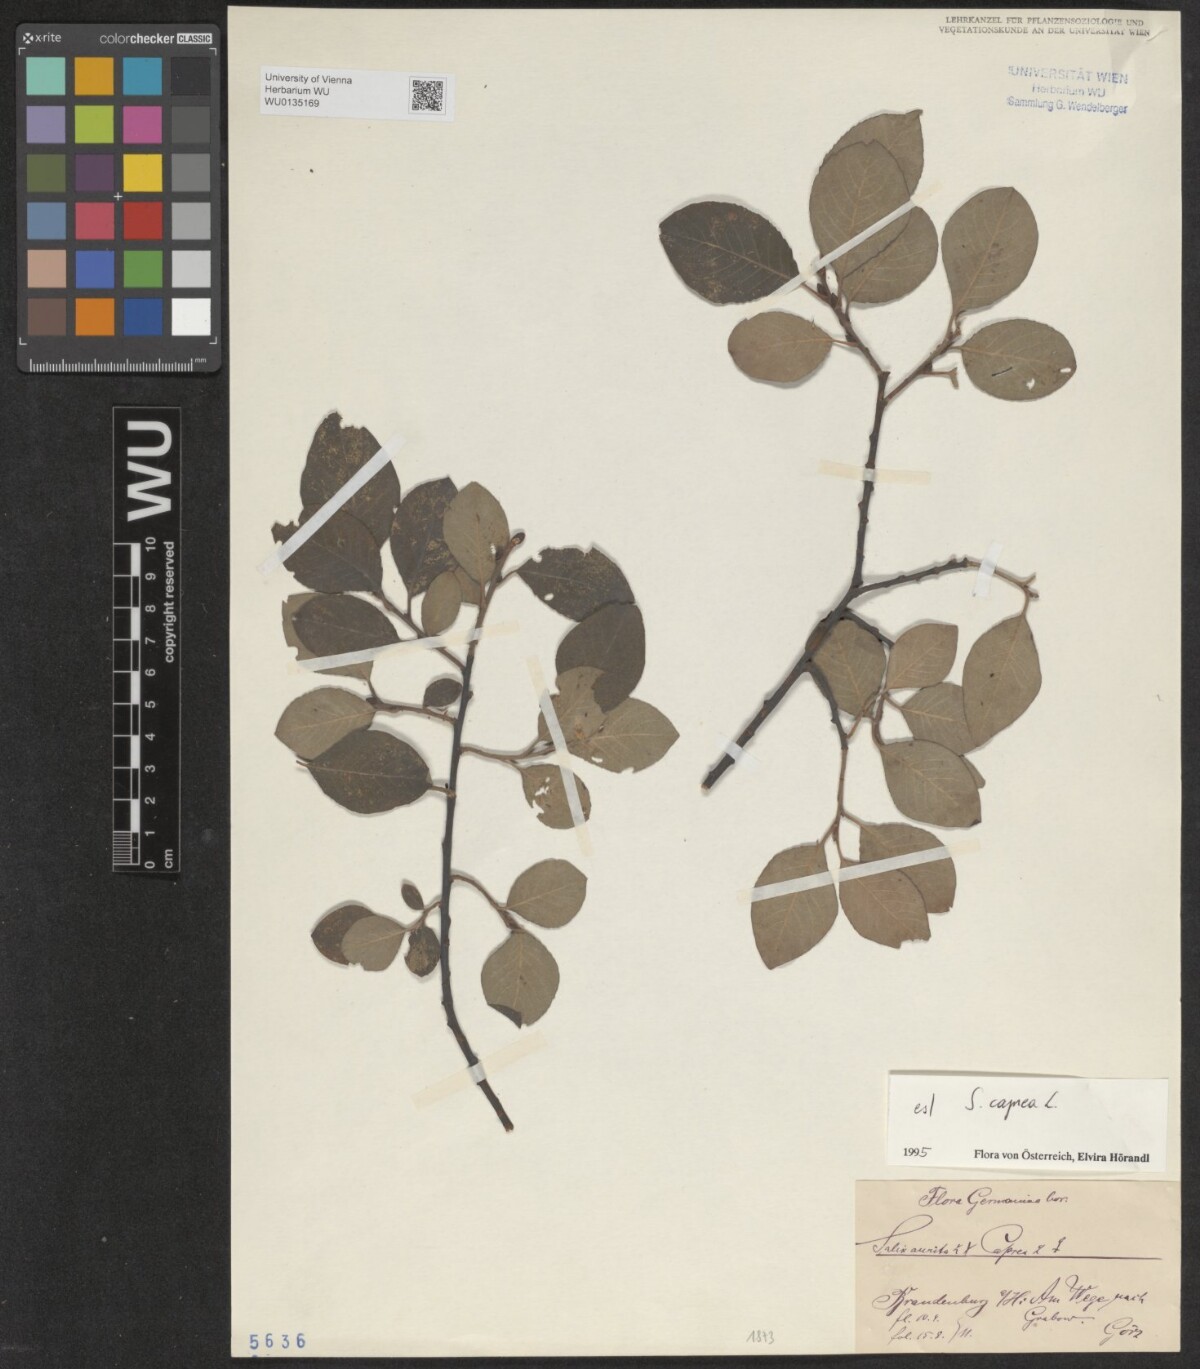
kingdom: Plantae
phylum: Tracheophyta
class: Magnoliopsida
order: Malpighiales
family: Salicaceae
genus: Salix
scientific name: Salix caprea
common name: Goat willow
